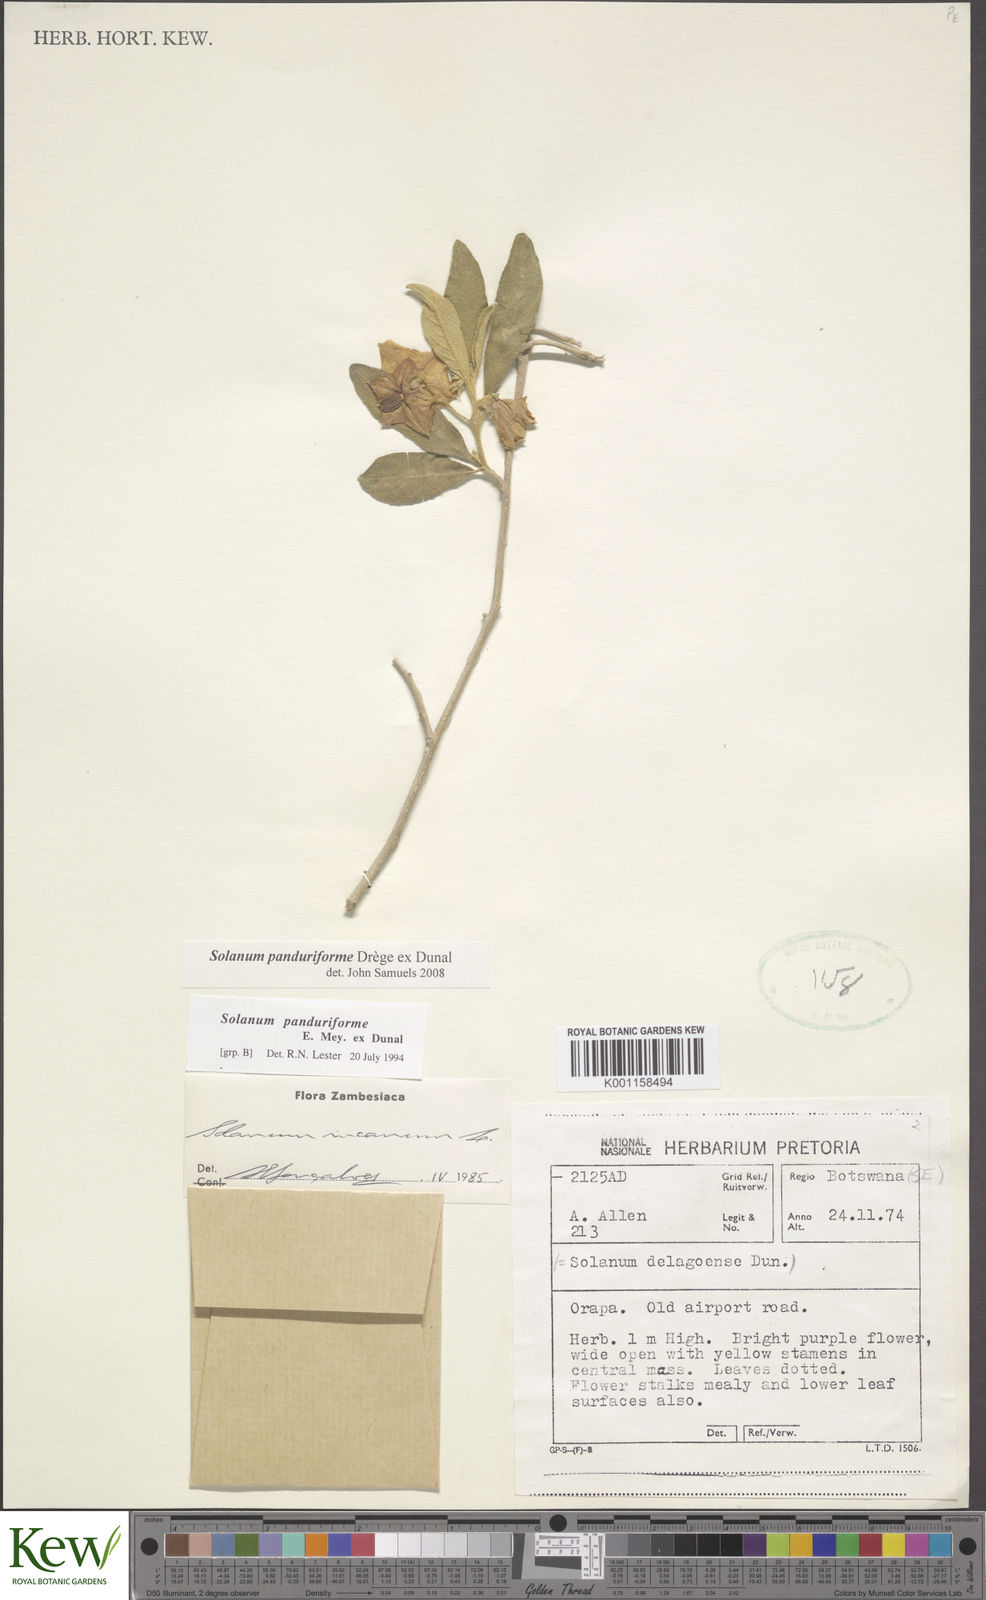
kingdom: Plantae
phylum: Tracheophyta
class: Magnoliopsida
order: Solanales
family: Solanaceae
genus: Solanum
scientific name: Solanum campylacanthum
